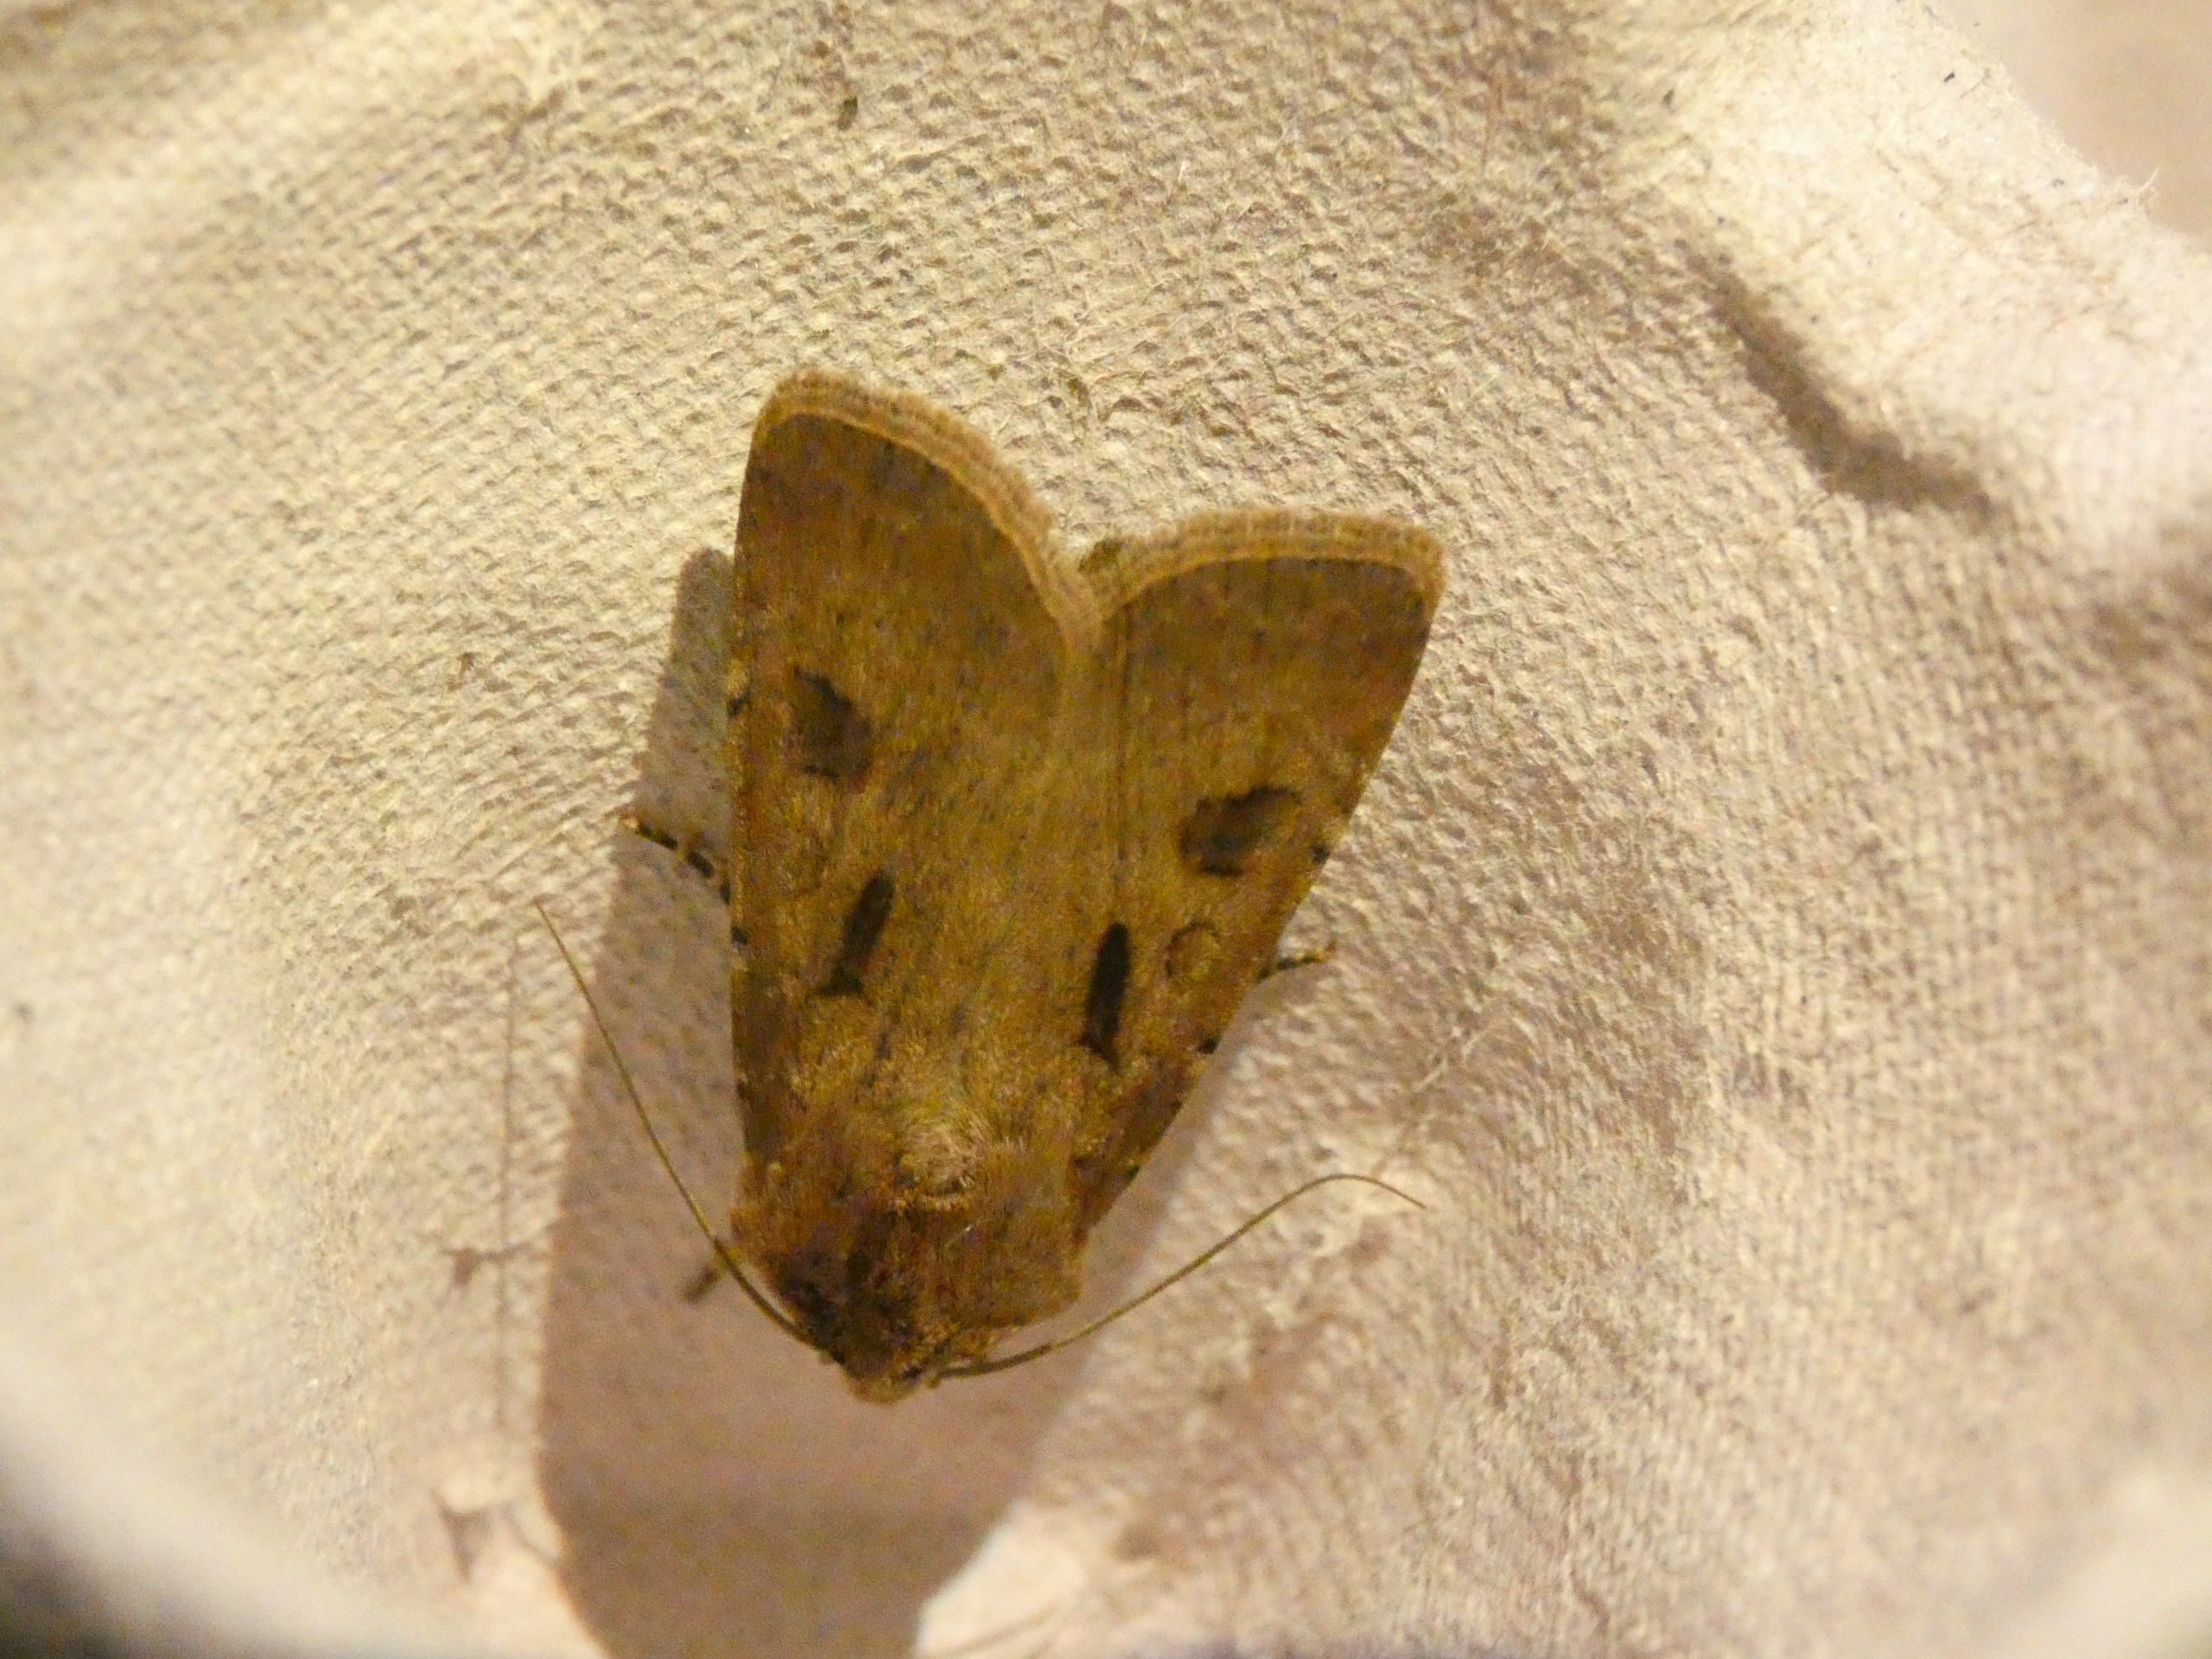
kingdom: Animalia
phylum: Arthropoda
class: Insecta
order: Lepidoptera
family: Noctuidae
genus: Agrotis
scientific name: Agrotis exclamationis
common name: Udråbstegnsugle
